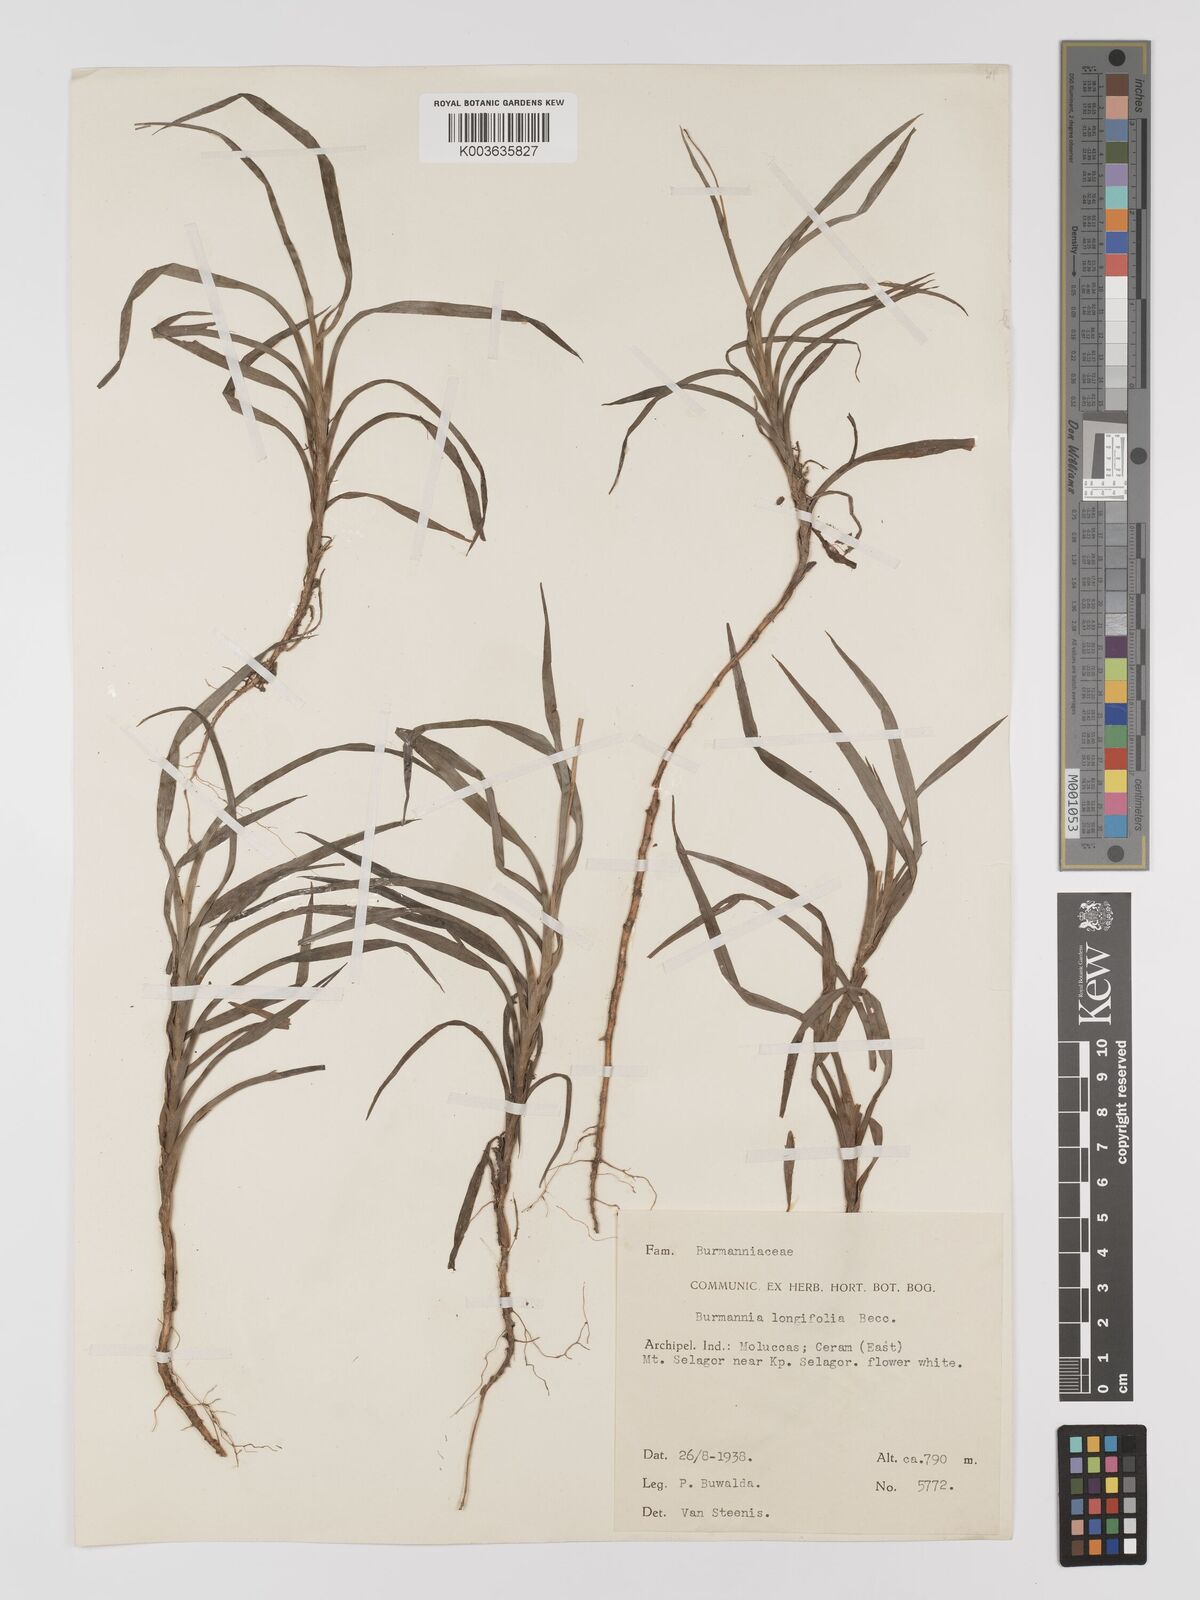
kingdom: Plantae
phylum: Tracheophyta
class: Liliopsida
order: Dioscoreales
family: Burmanniaceae
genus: Burmannia
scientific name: Burmannia longifolia
